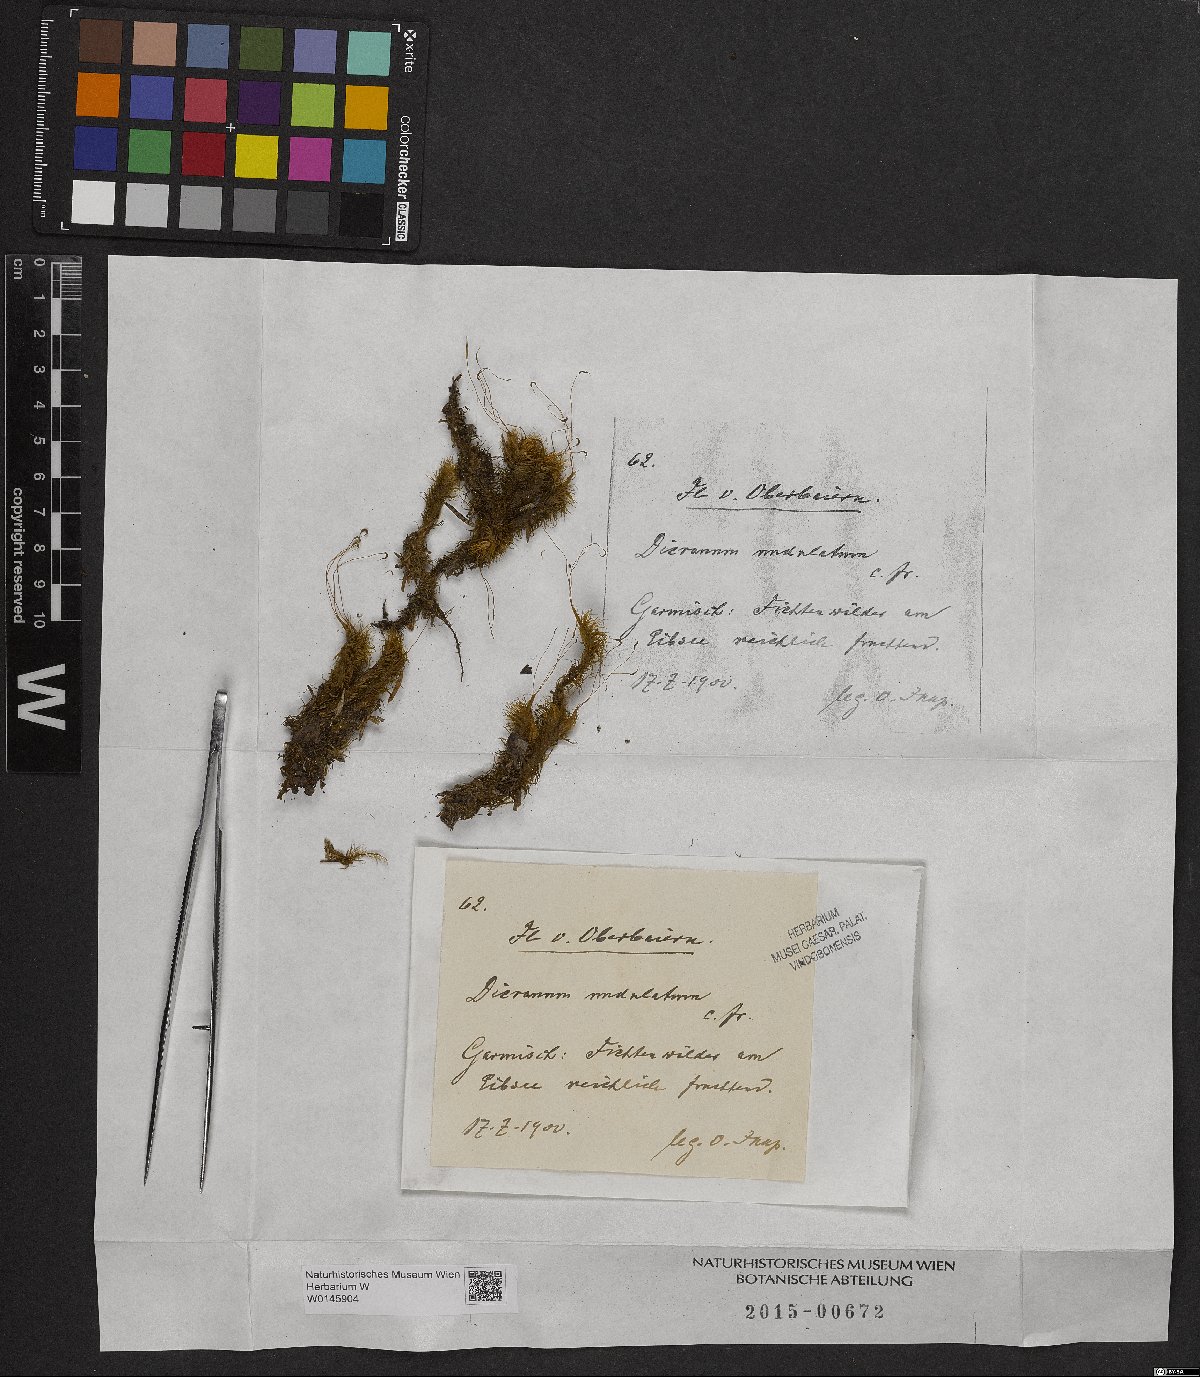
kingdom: Plantae
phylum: Bryophyta
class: Bryopsida
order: Dicranales
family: Dicranaceae
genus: Dicranum
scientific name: Dicranum undulatum
